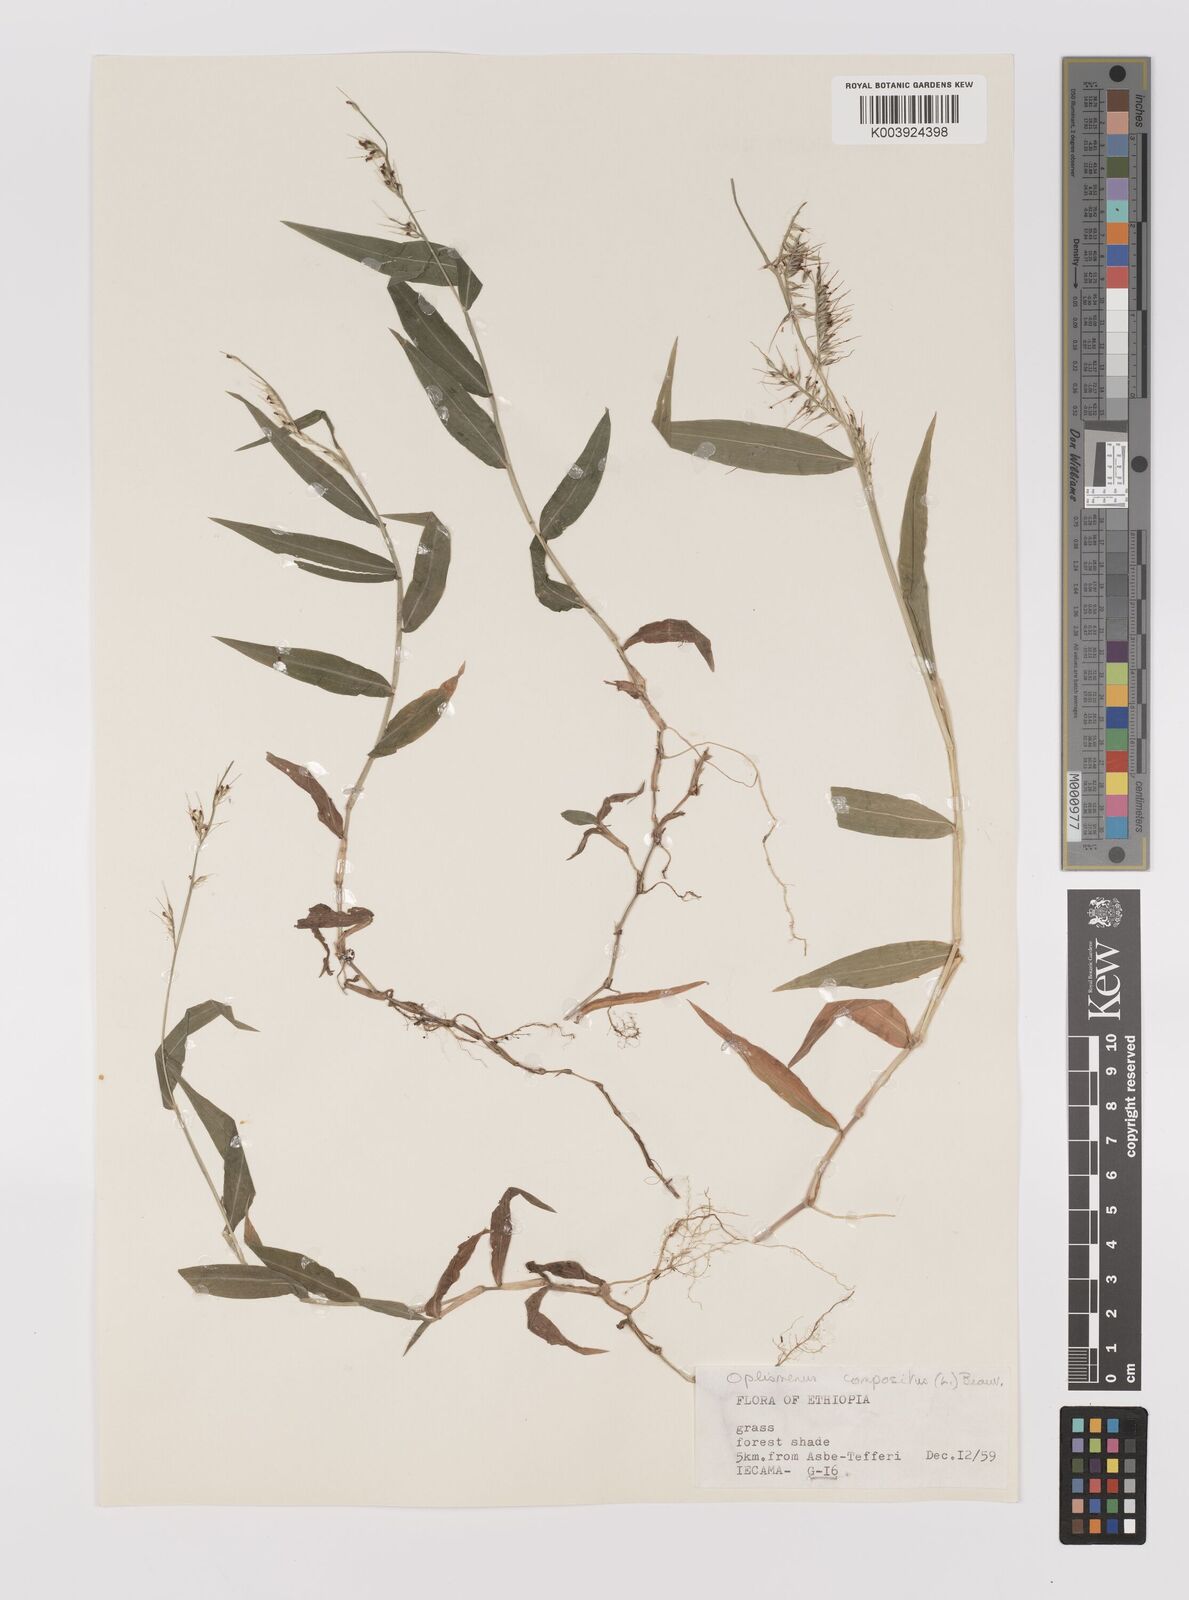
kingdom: Plantae
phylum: Tracheophyta
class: Liliopsida
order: Poales
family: Poaceae
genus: Oplismenus
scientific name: Oplismenus compositus
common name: Running mountain grass
